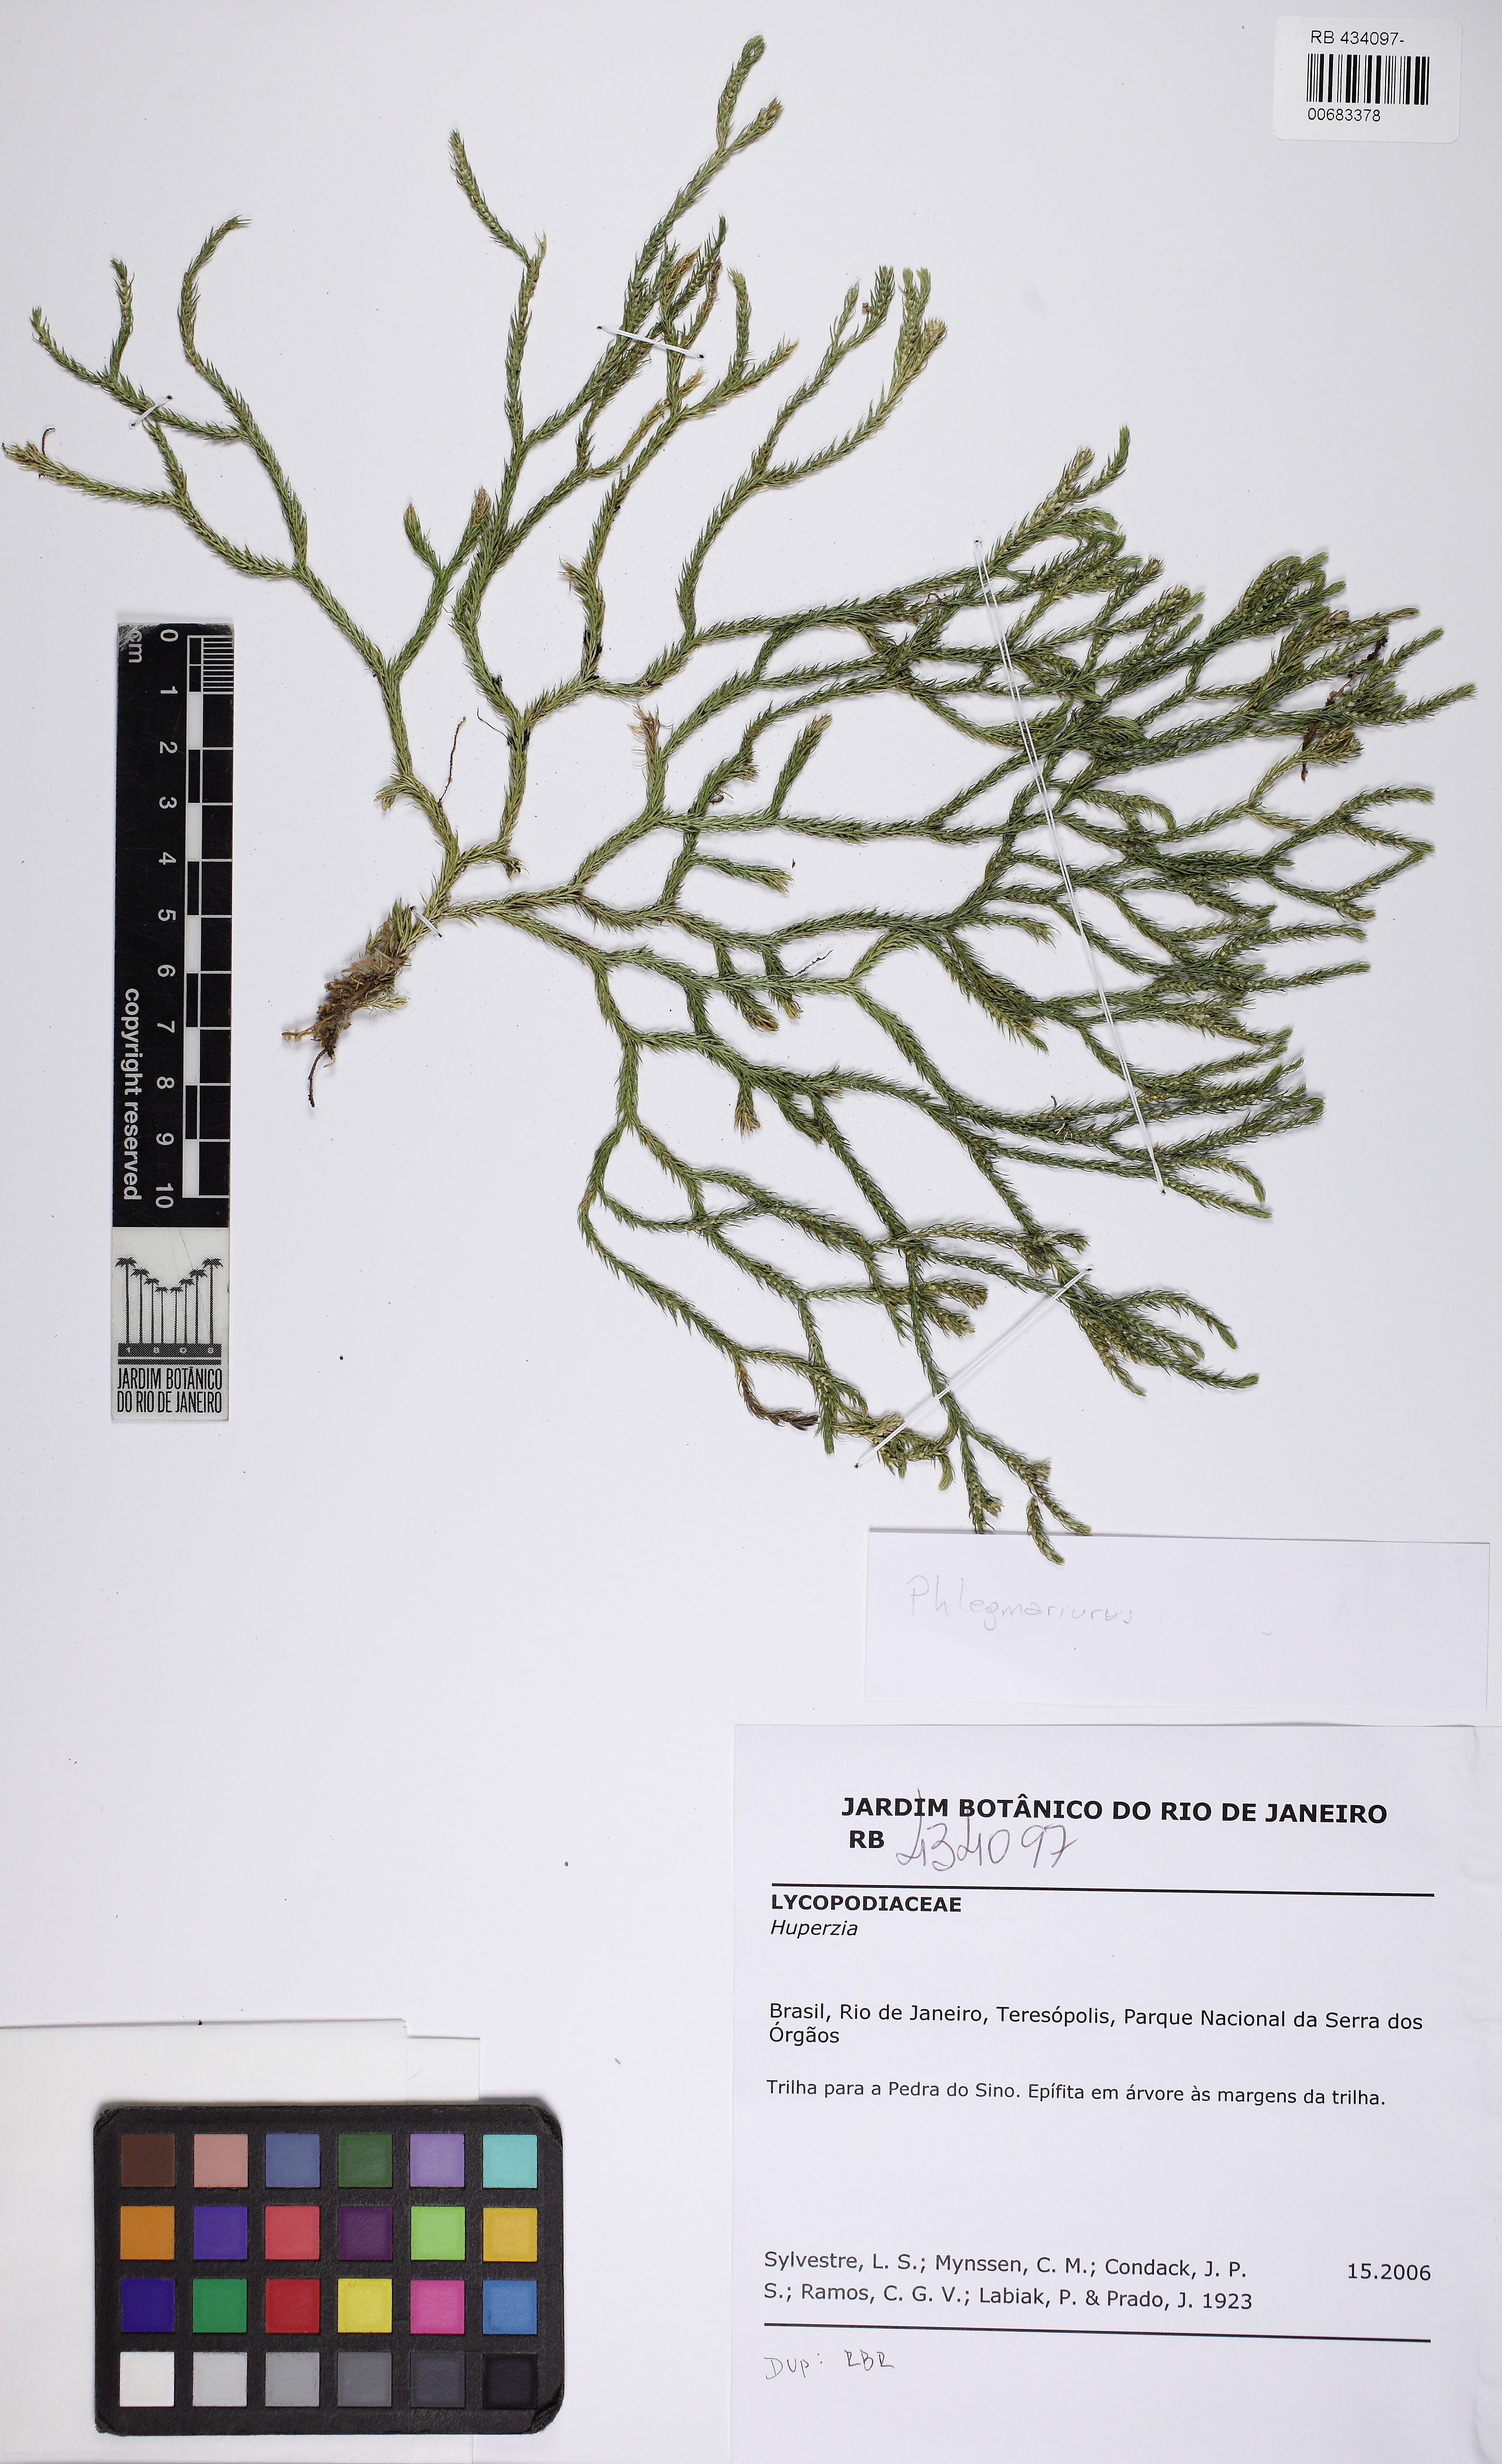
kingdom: Plantae
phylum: Tracheophyta
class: Lycopodiopsida
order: Lycopodiales
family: Lycopodiaceae
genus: Phlegmariurus
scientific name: Phlegmariurus comans
